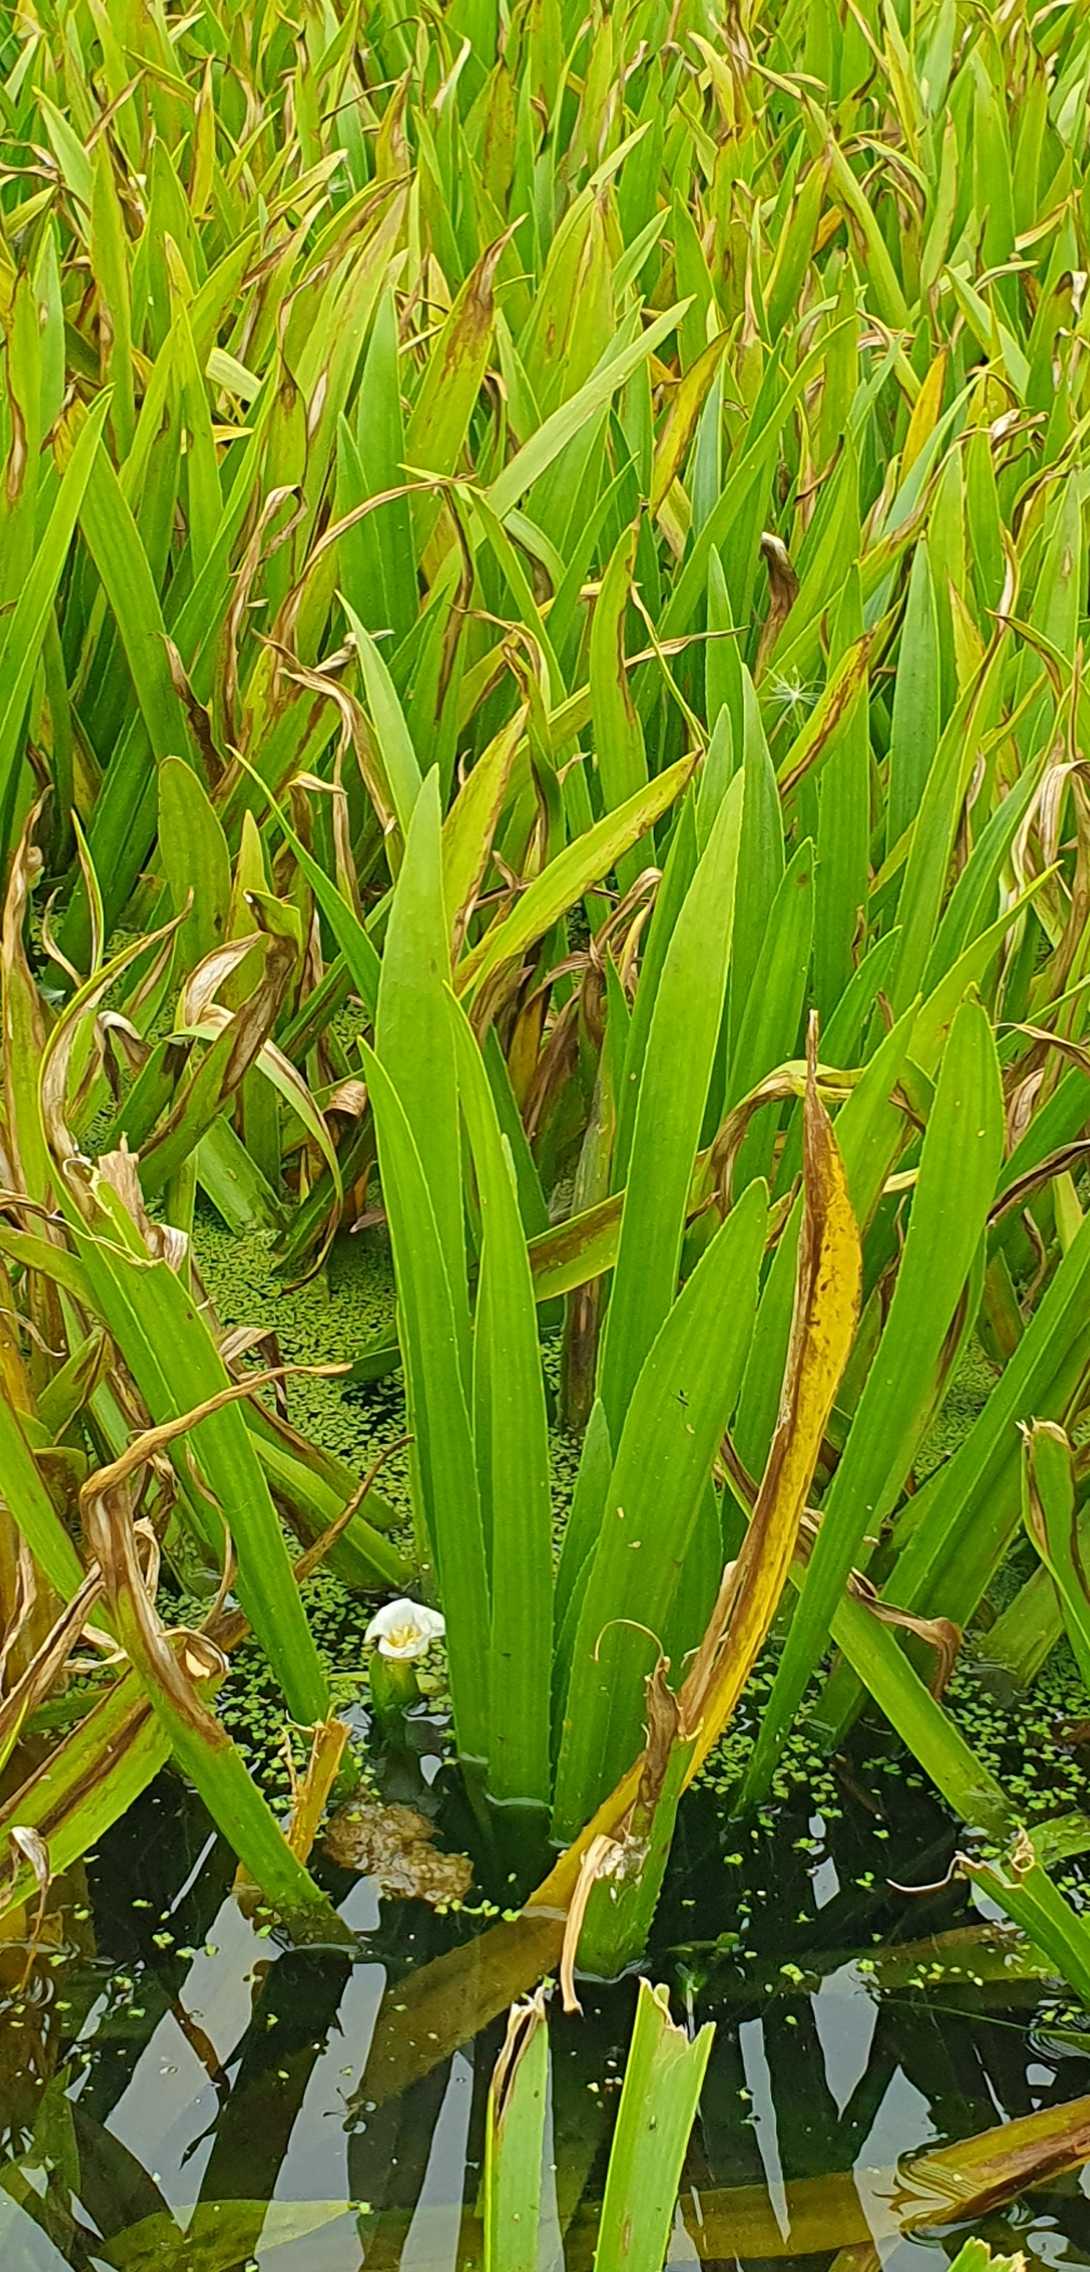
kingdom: Plantae
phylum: Tracheophyta
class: Liliopsida
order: Alismatales
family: Hydrocharitaceae
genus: Stratiotes
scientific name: Stratiotes aloides
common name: Krebseklo
